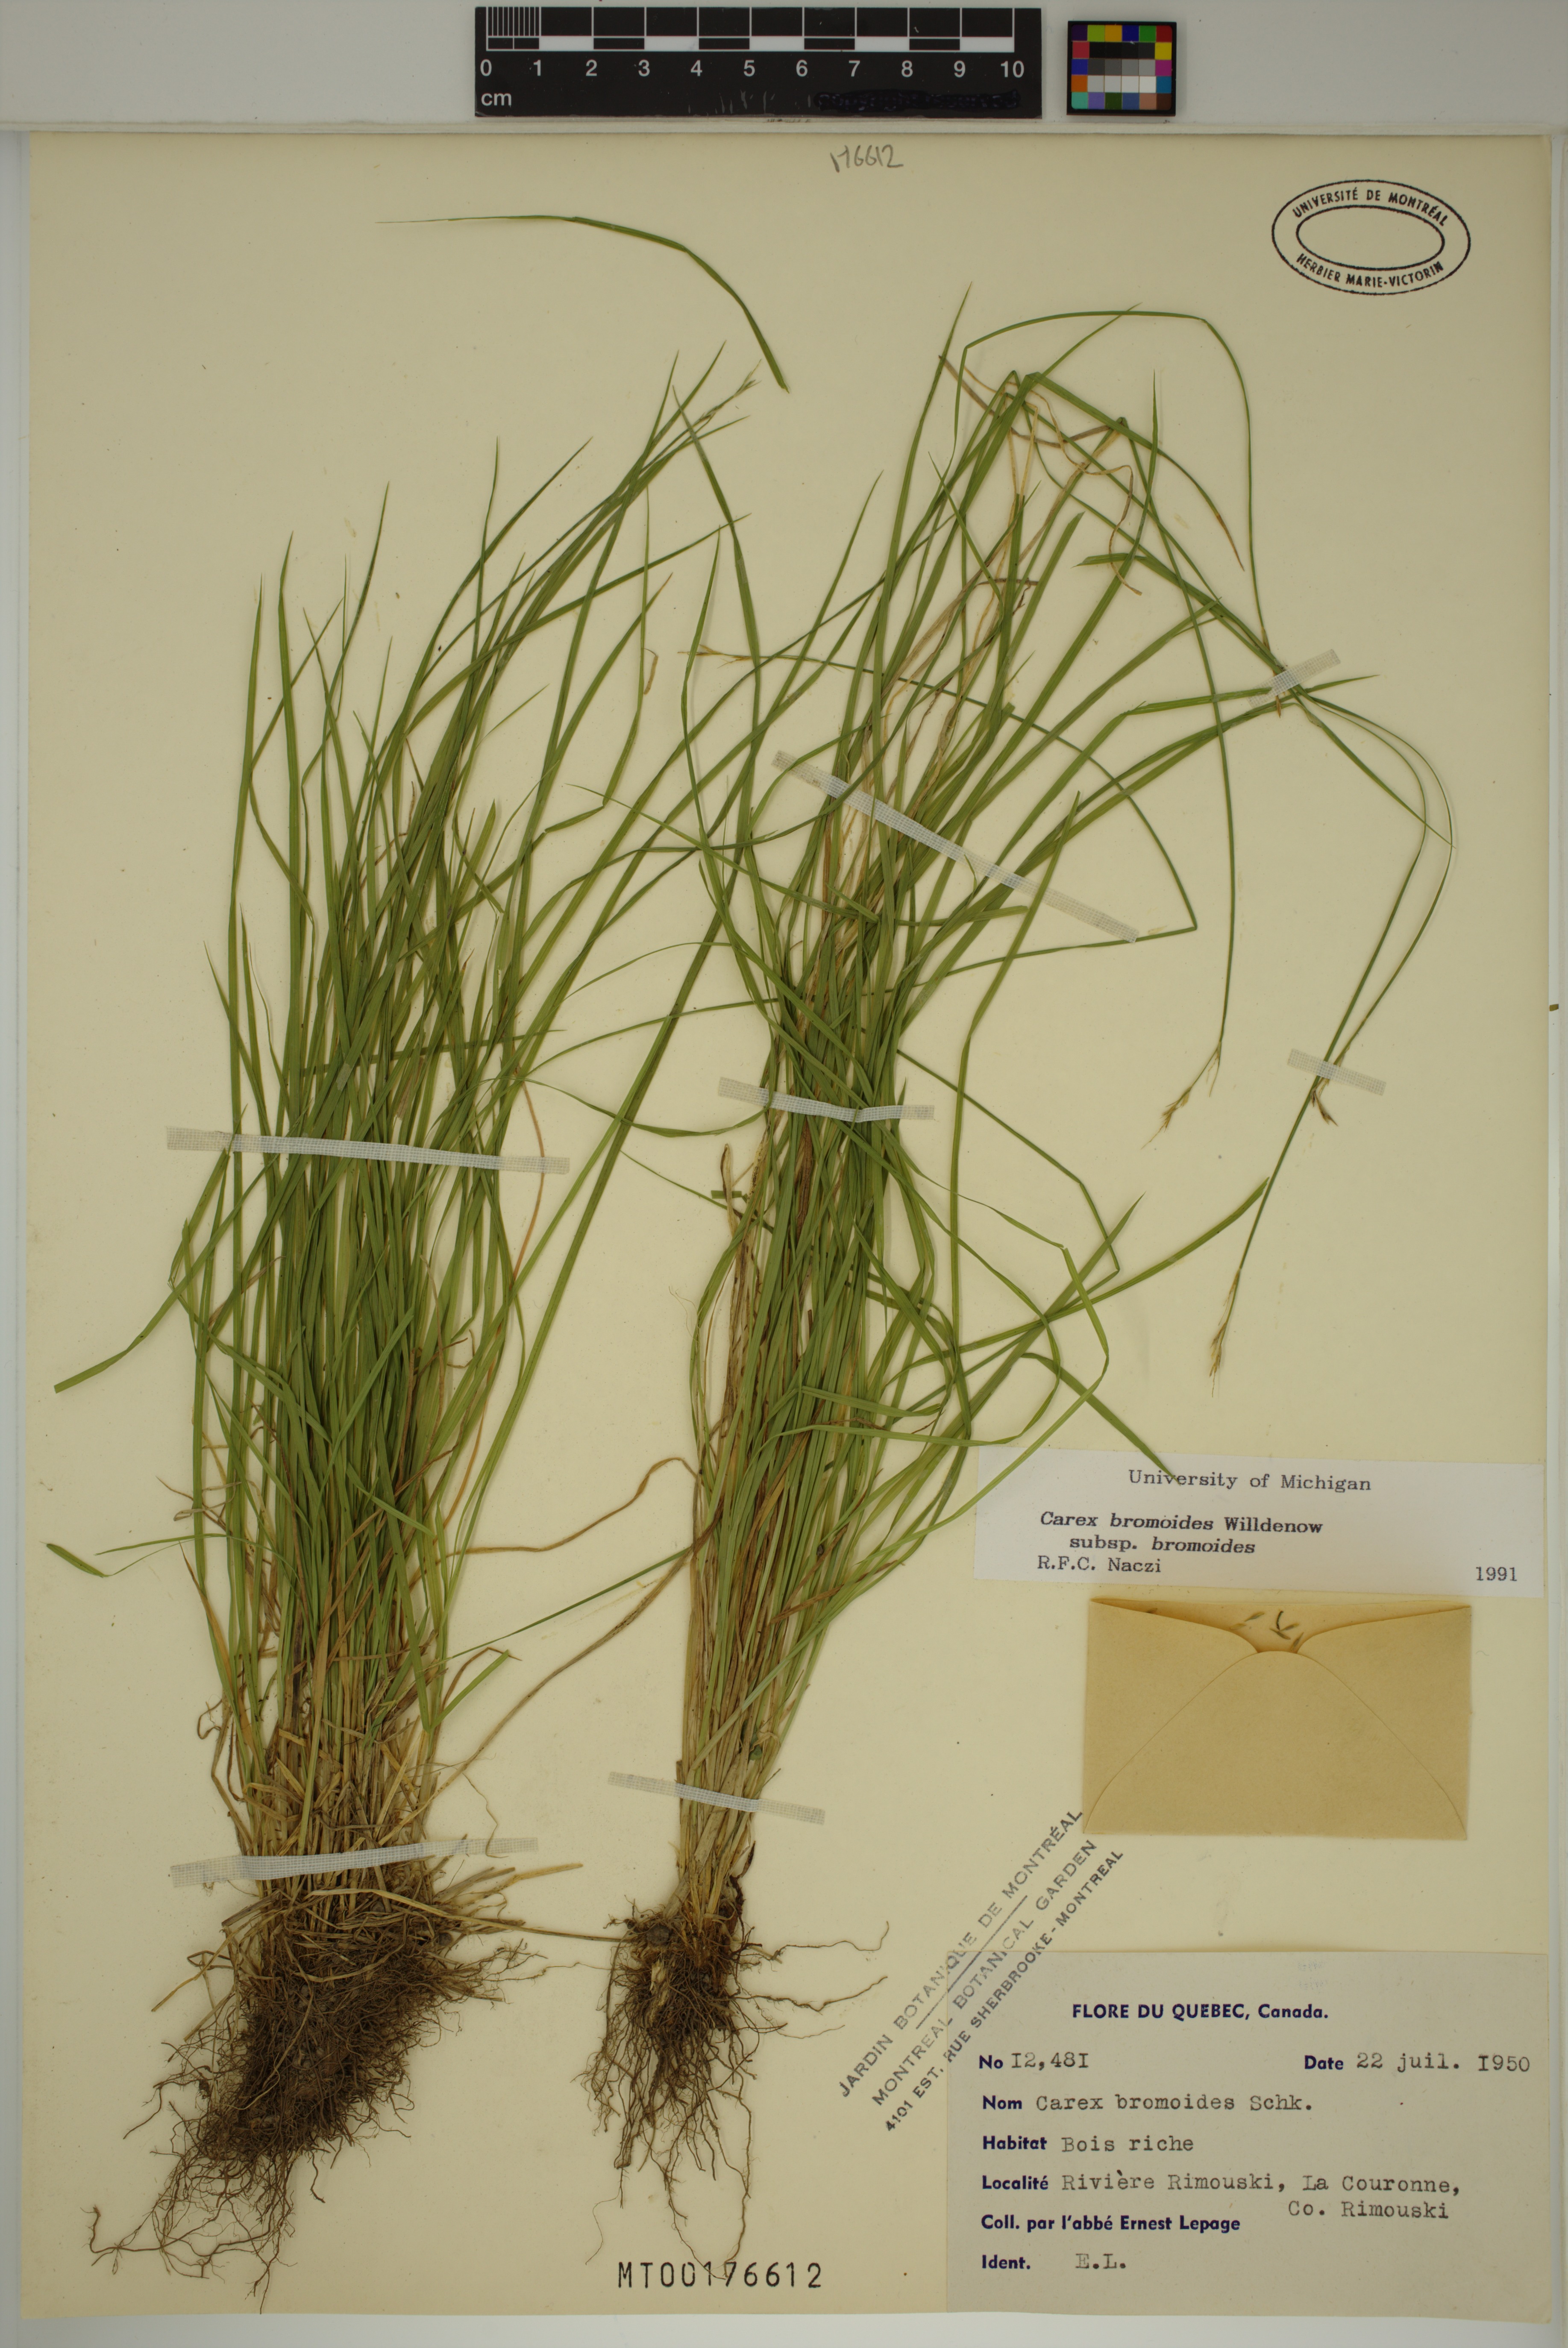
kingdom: Plantae
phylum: Tracheophyta
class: Liliopsida
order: Poales
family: Cyperaceae
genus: Carex
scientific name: Carex bromoides
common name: Brome hummock sedge
